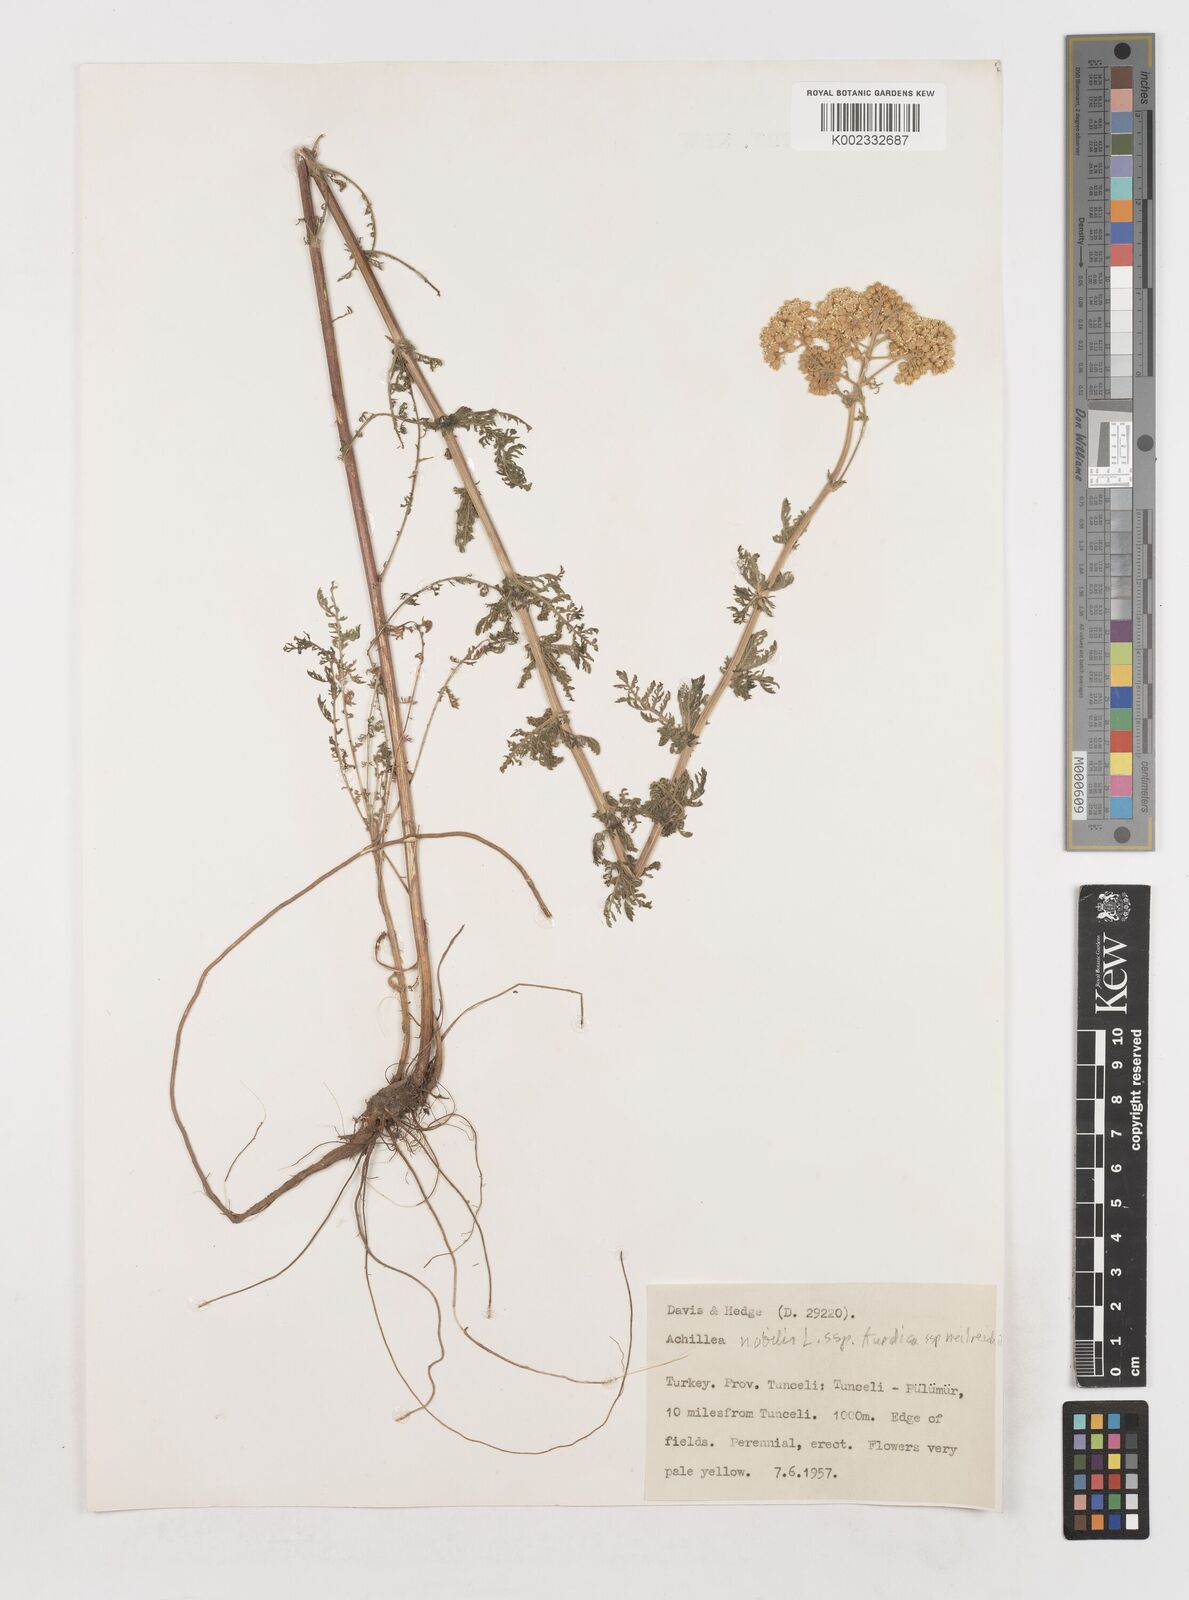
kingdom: Plantae
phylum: Tracheophyta
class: Magnoliopsida
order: Asterales
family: Asteraceae
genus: Achillea
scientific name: Achillea nobilis
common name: Noble yarrow
